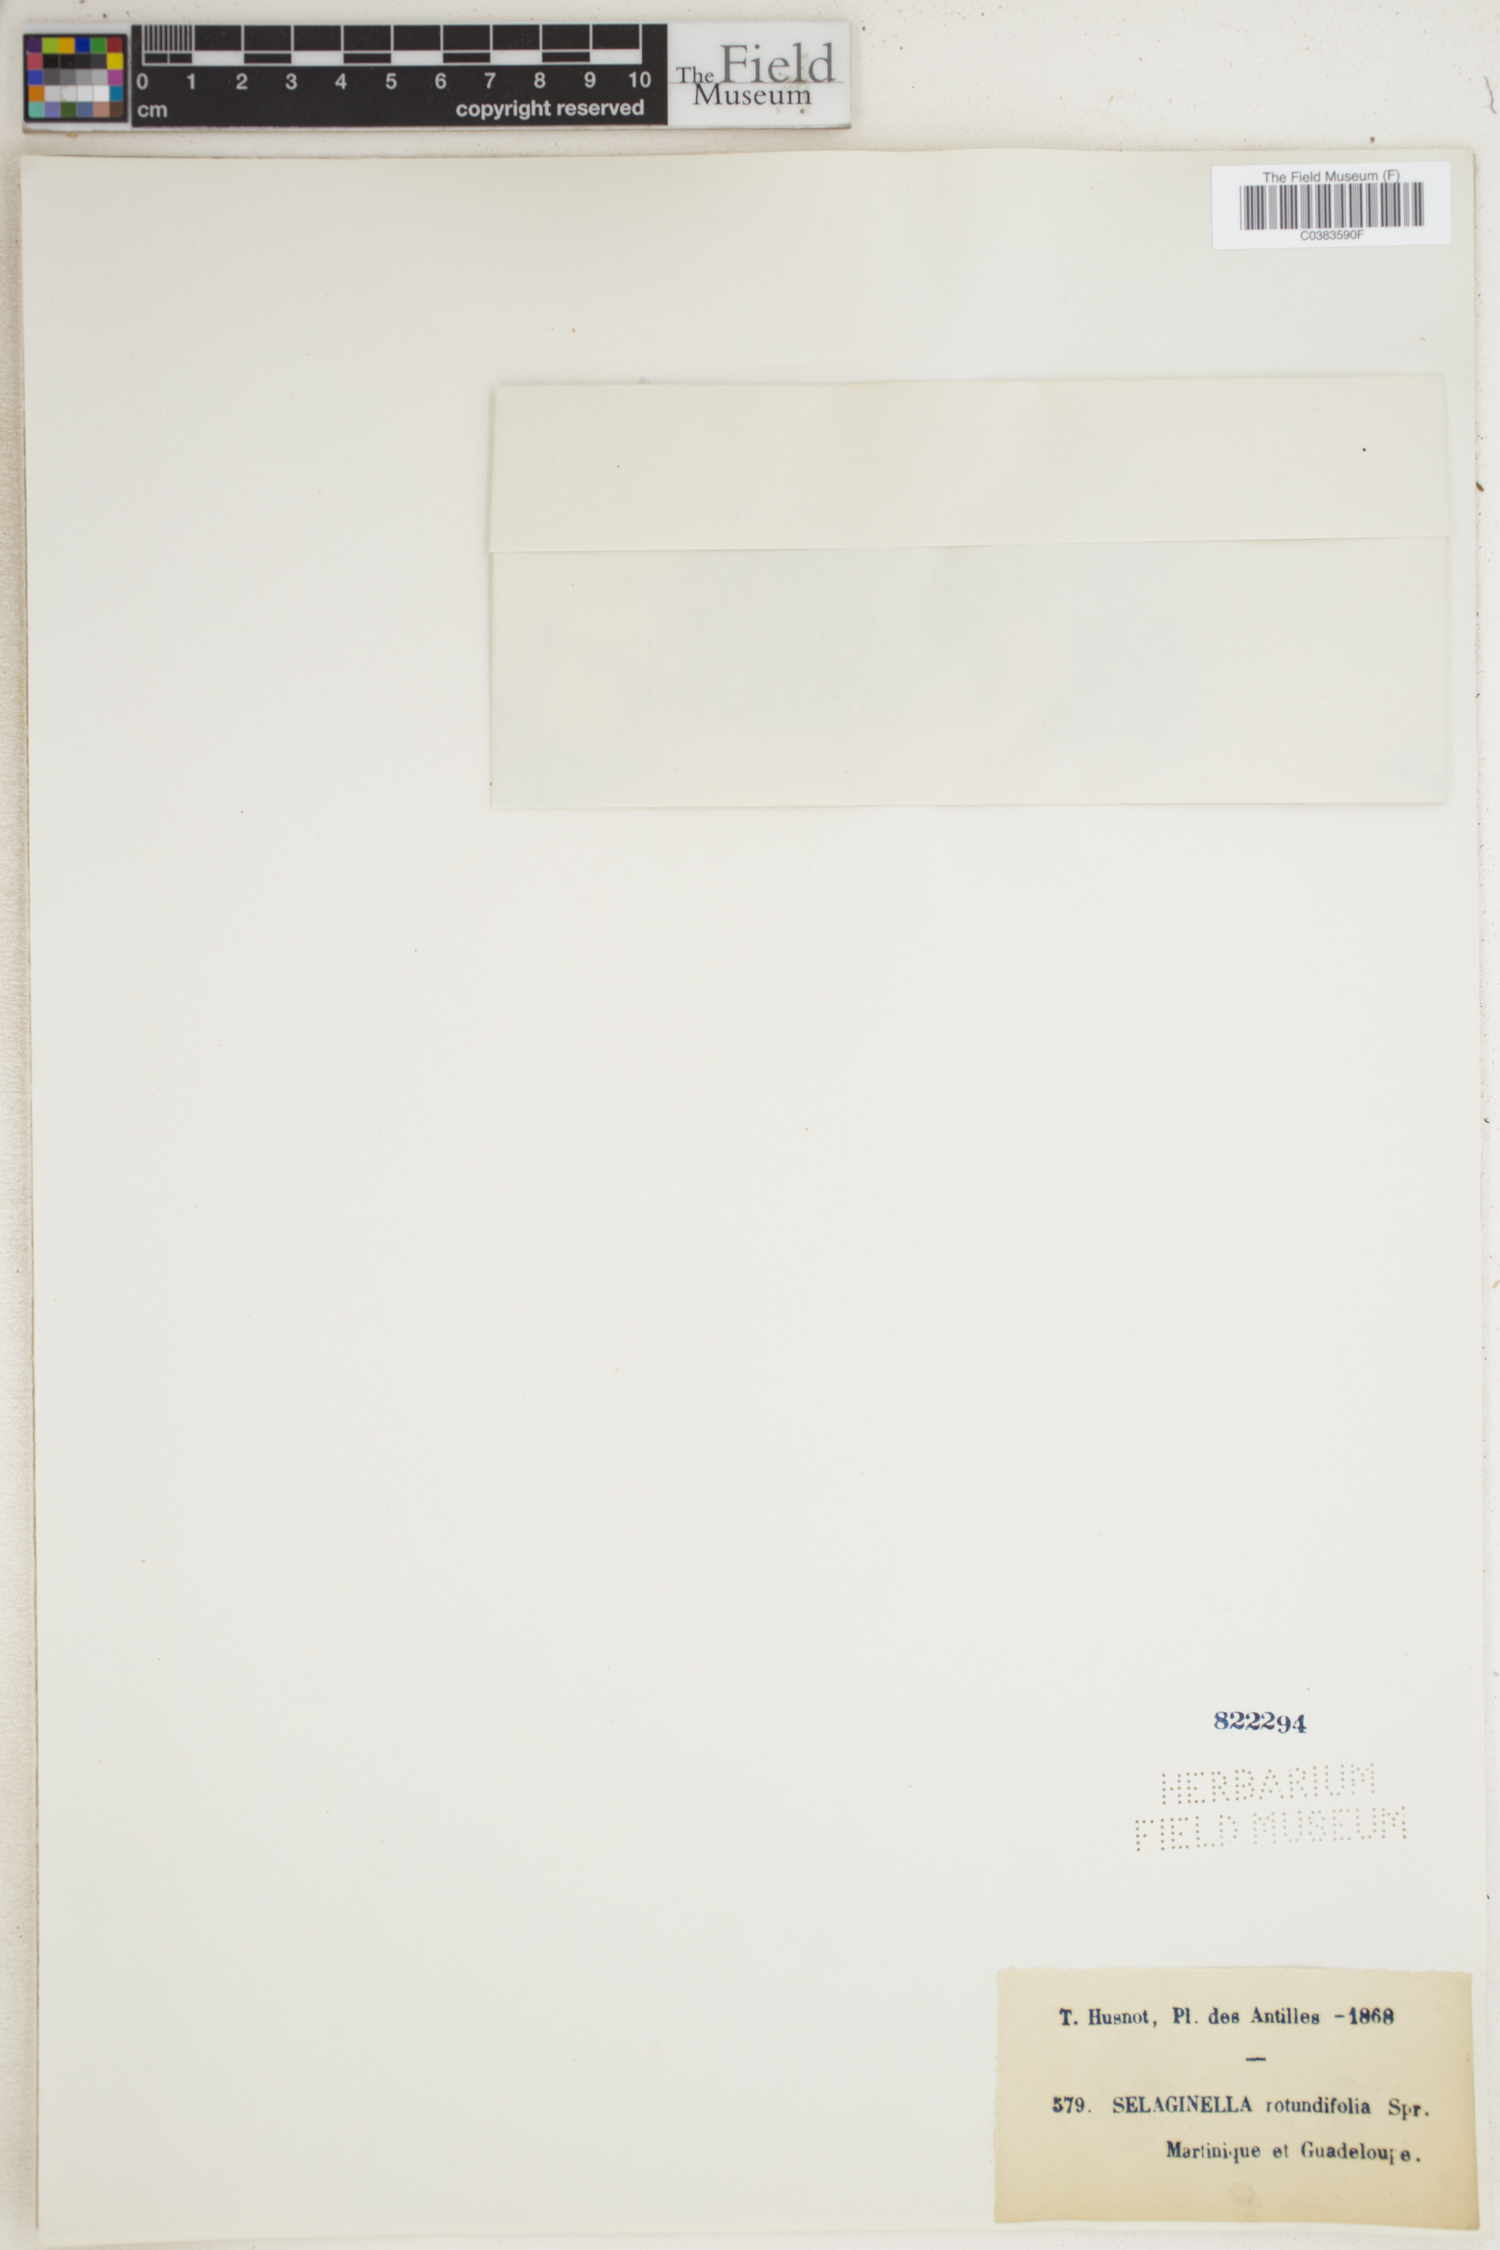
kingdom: Plantae
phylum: Tracheophyta
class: Lycopodiopsida
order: Selaginellales
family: Selaginellaceae
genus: Selaginella
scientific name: Selaginella rotundifolia
